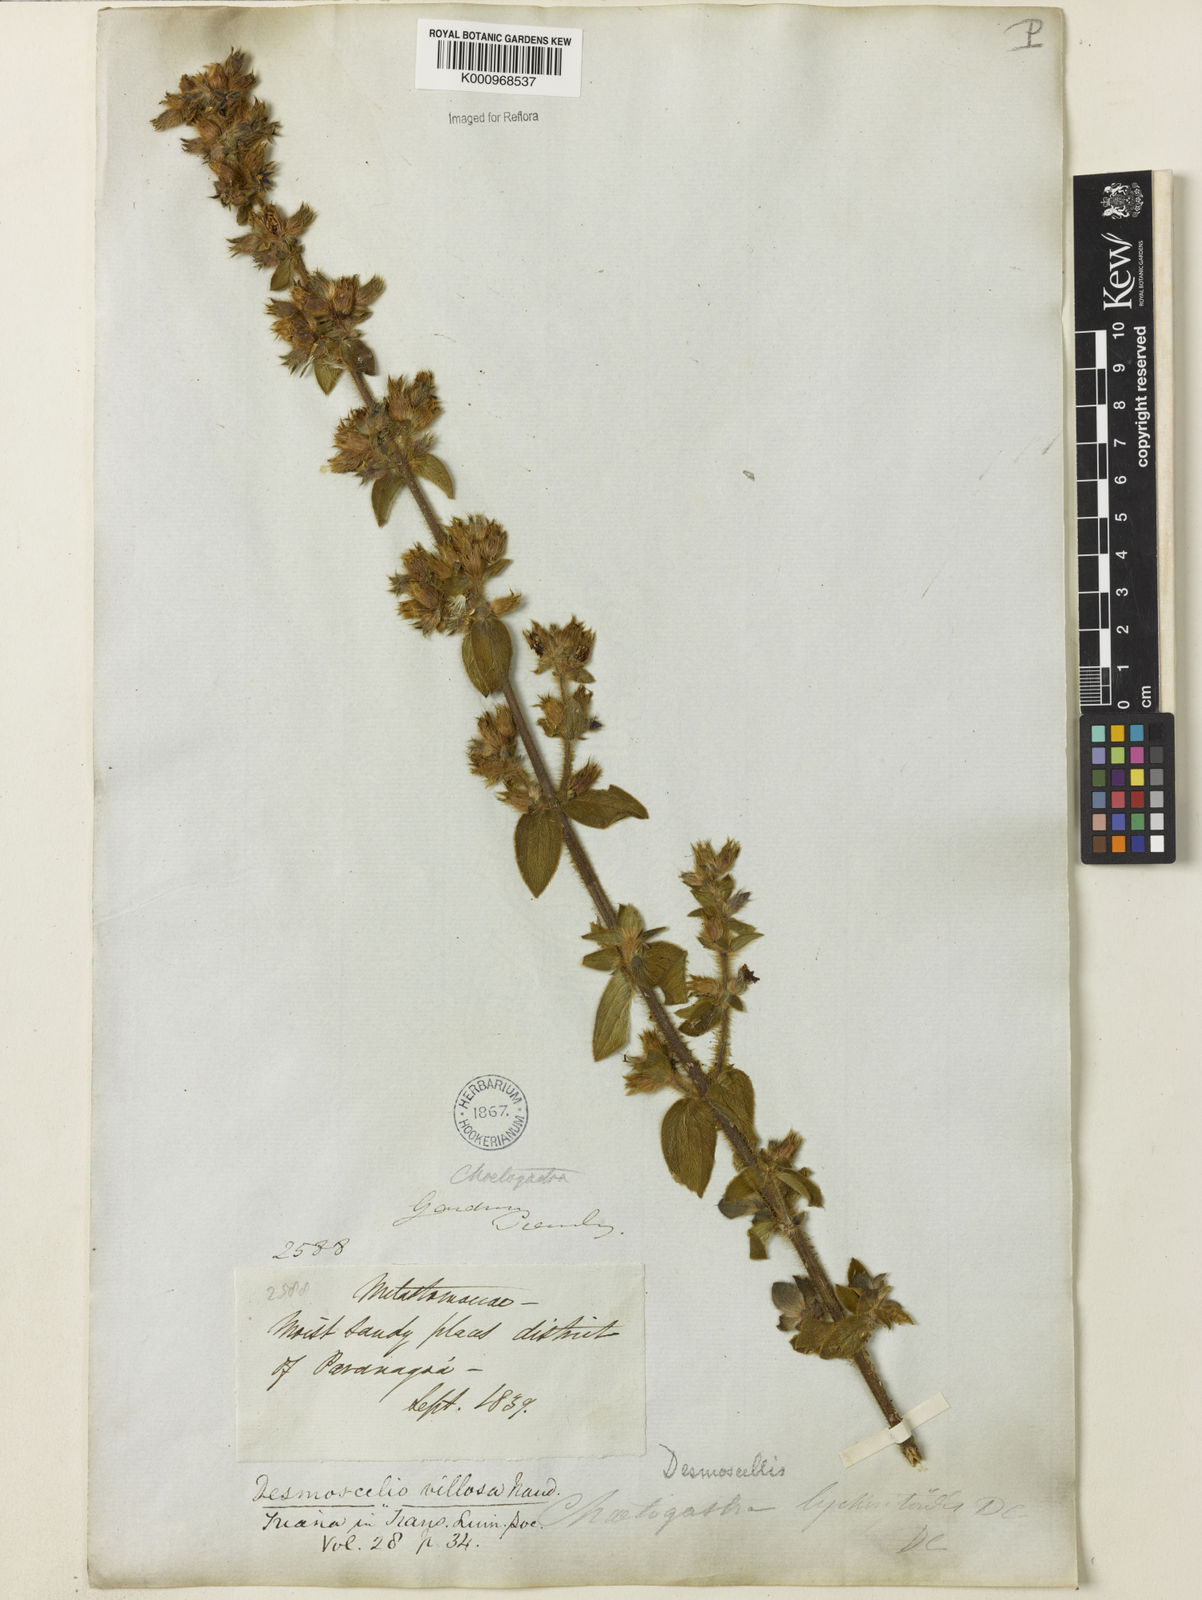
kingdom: Plantae
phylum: Tracheophyta
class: Magnoliopsida
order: Myrtales
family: Melastomataceae
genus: Desmoscelis
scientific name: Desmoscelis villosa
